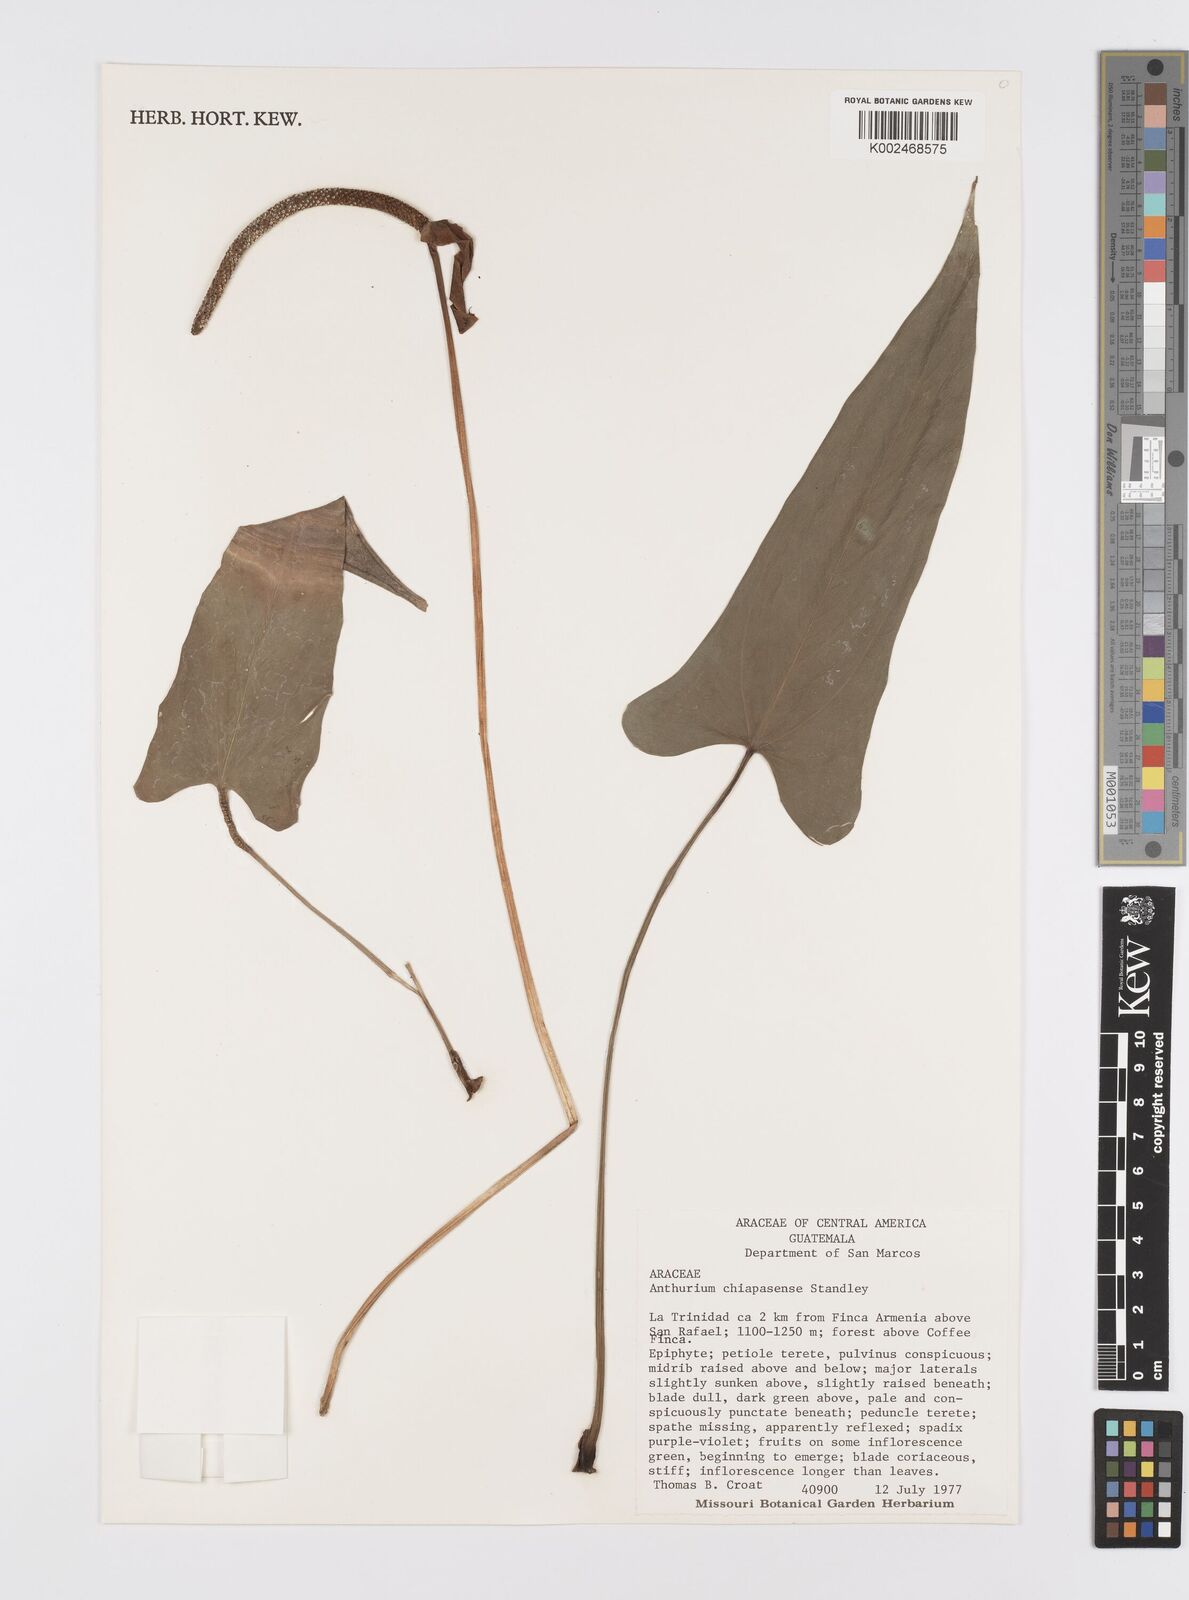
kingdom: Plantae
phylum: Tracheophyta
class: Liliopsida
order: Alismatales
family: Araceae
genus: Anthurium
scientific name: Anthurium chiapasense
